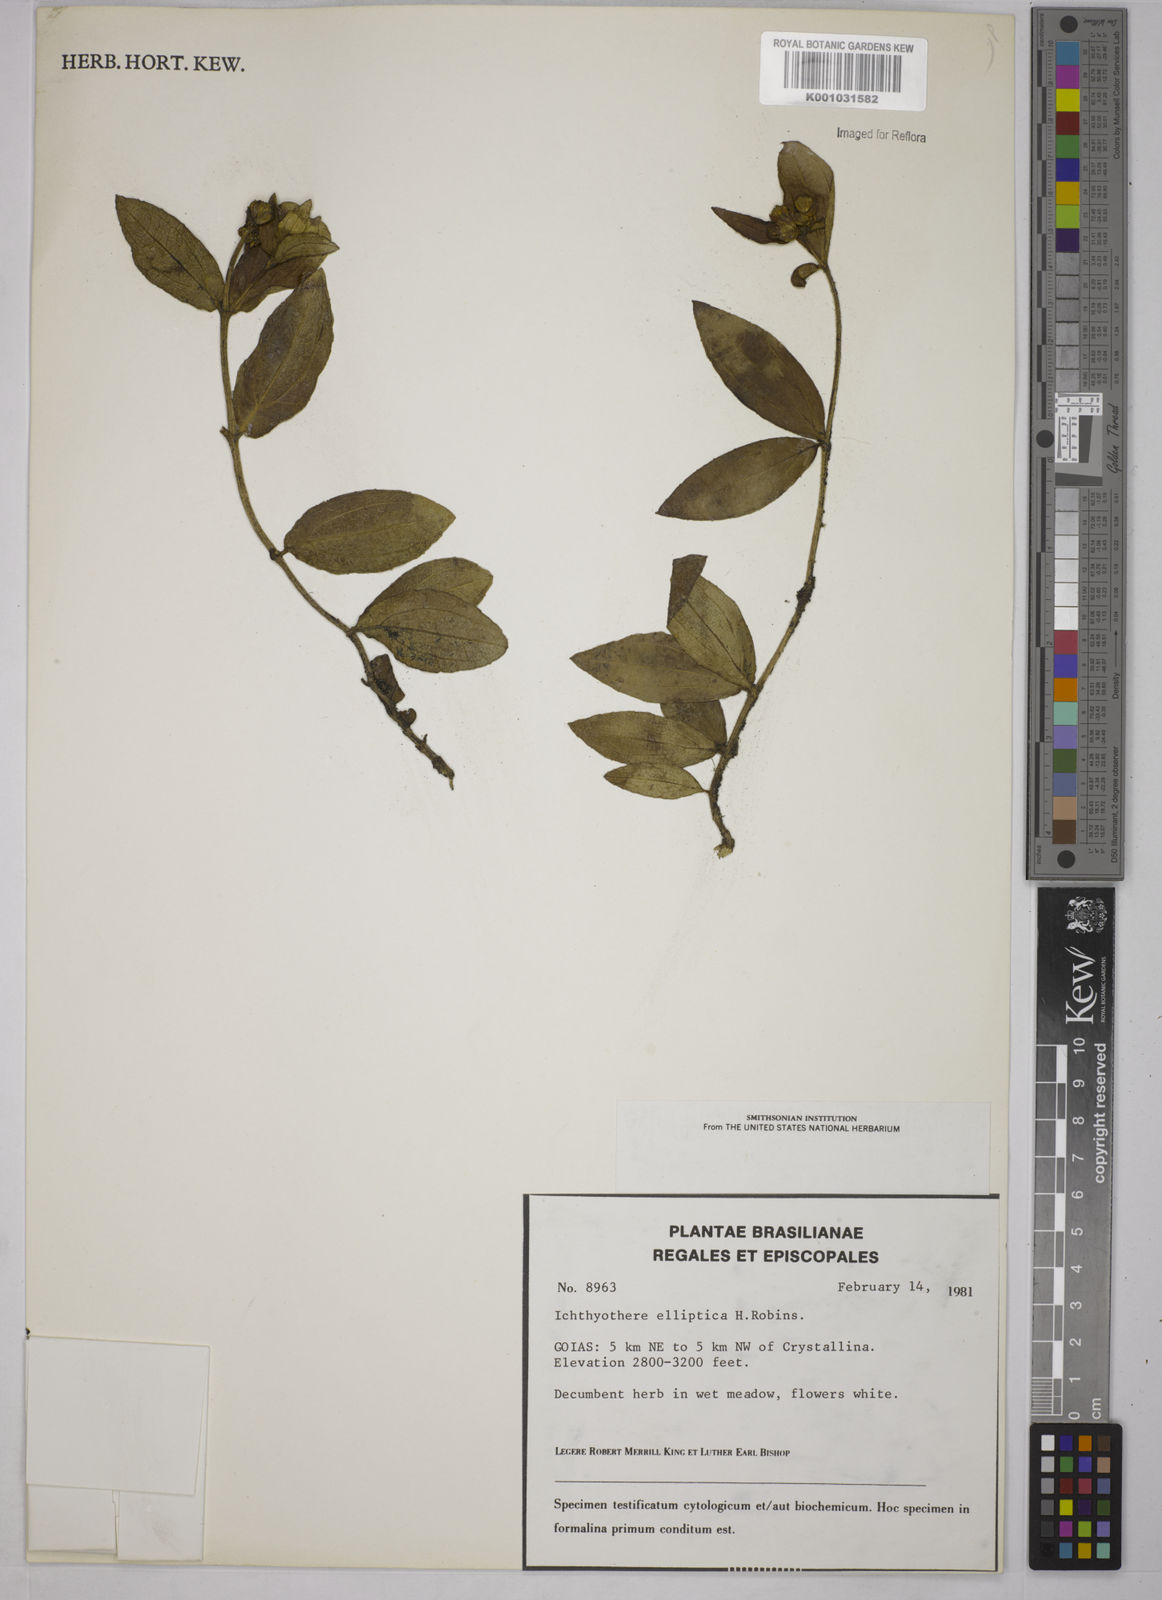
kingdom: Plantae
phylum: Tracheophyta
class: Magnoliopsida
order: Asterales
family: Asteraceae
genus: Ichthyothere
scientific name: Ichthyothere elliptica
